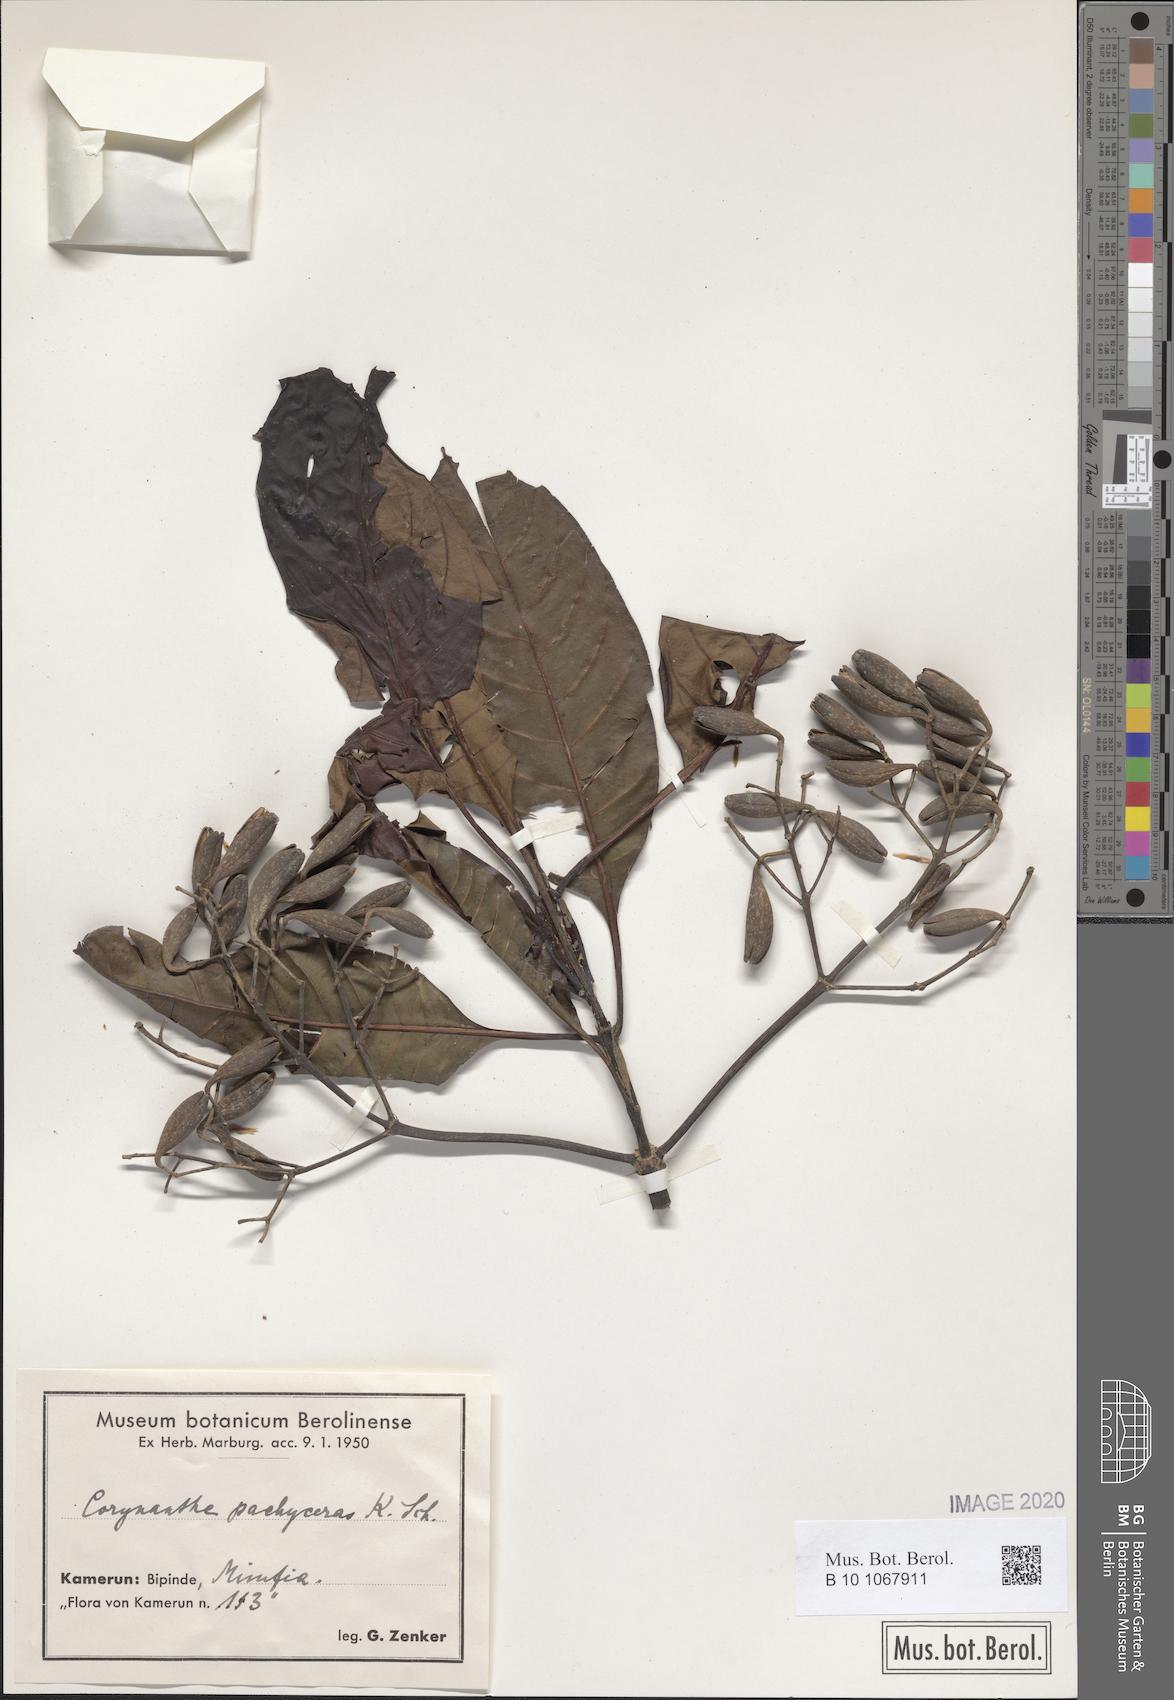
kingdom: Plantae
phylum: Tracheophyta
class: Magnoliopsida
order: Gentianales
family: Rubiaceae
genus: Corynanthe
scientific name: Corynanthe pachyceras
